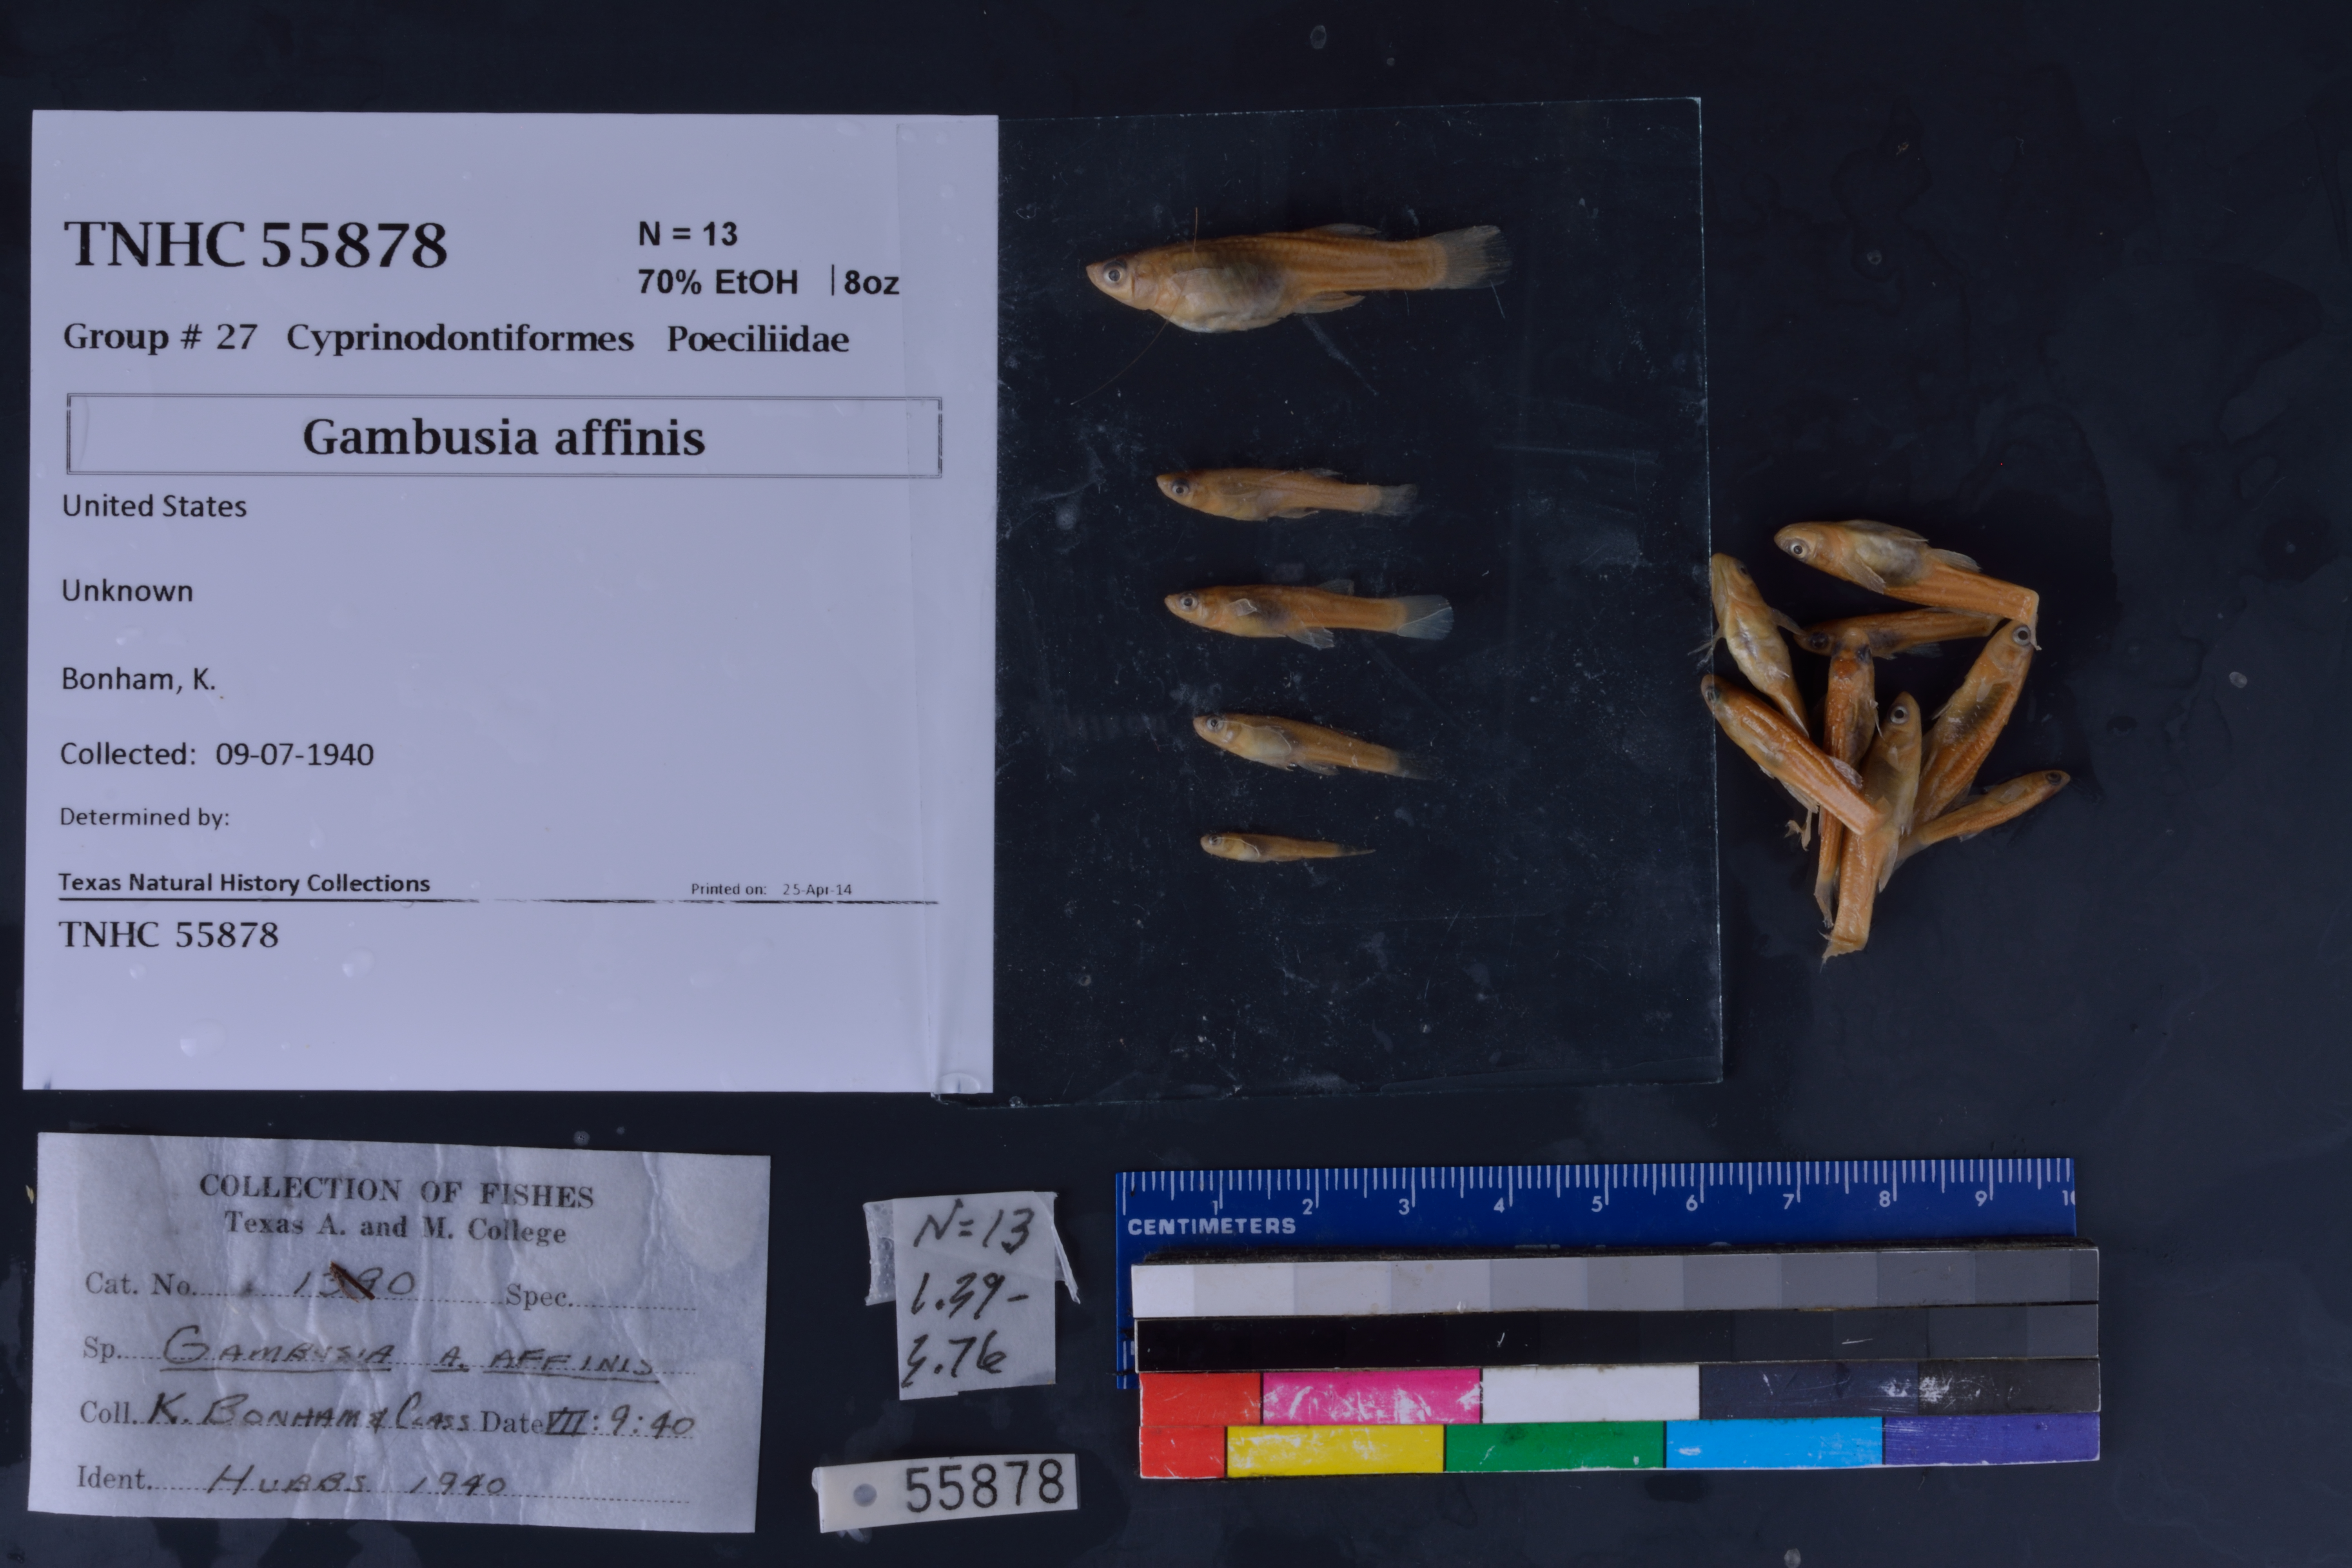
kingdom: Animalia
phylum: Chordata
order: Cyprinodontiformes
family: Poeciliidae
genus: Gambusia
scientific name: Gambusia affinis
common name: Mosquitofish
